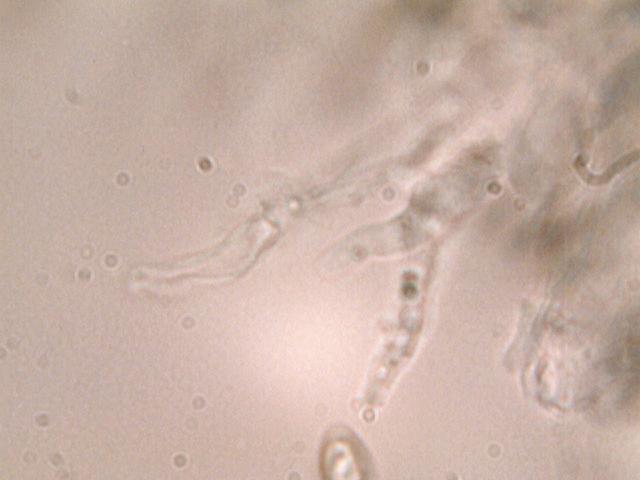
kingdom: Fungi
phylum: Basidiomycota
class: Agaricomycetes
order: Agaricales
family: Entolomataceae
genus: Clitopilus
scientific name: Clitopilus prunulus
